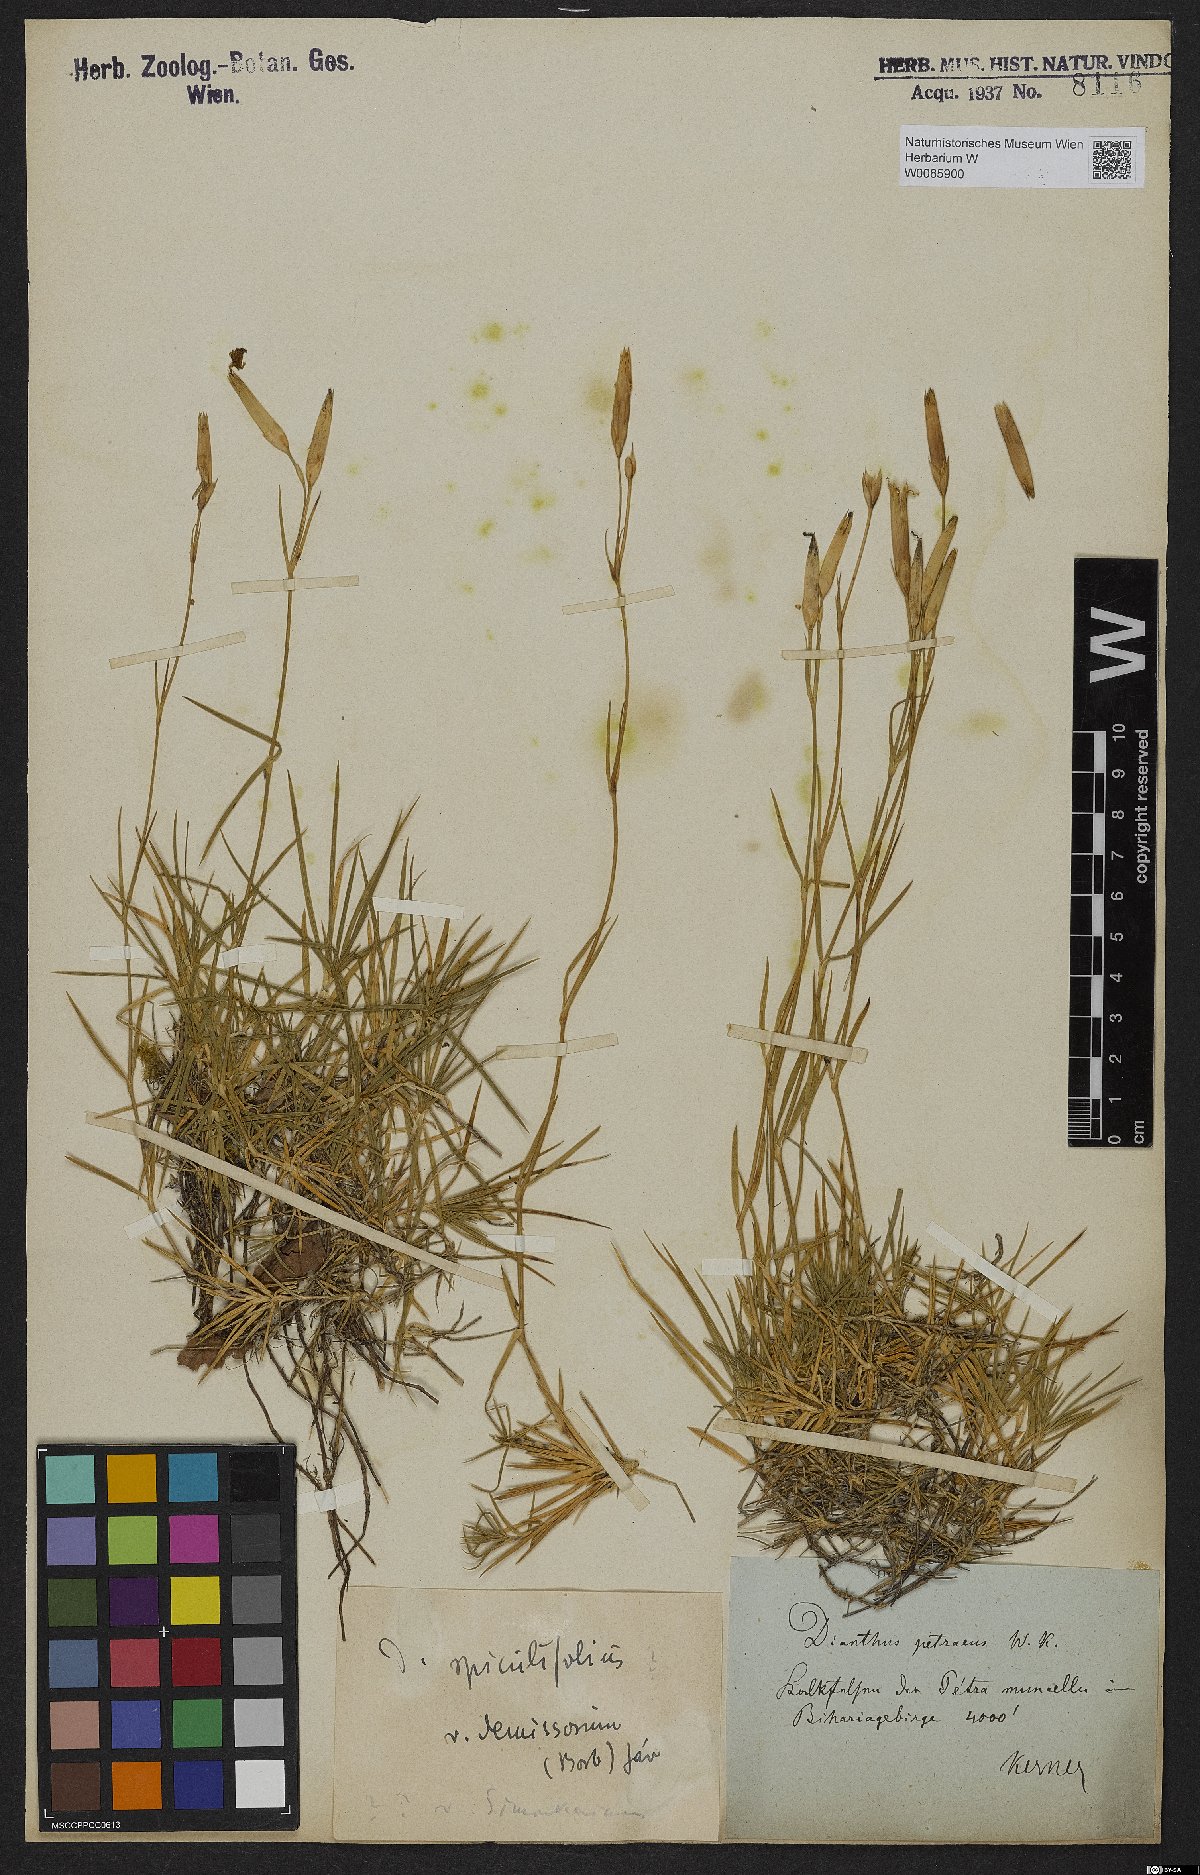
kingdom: Plantae
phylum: Tracheophyta
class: Magnoliopsida
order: Caryophyllales
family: Caryophyllaceae
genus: Dianthus
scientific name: Dianthus spiculifolius
